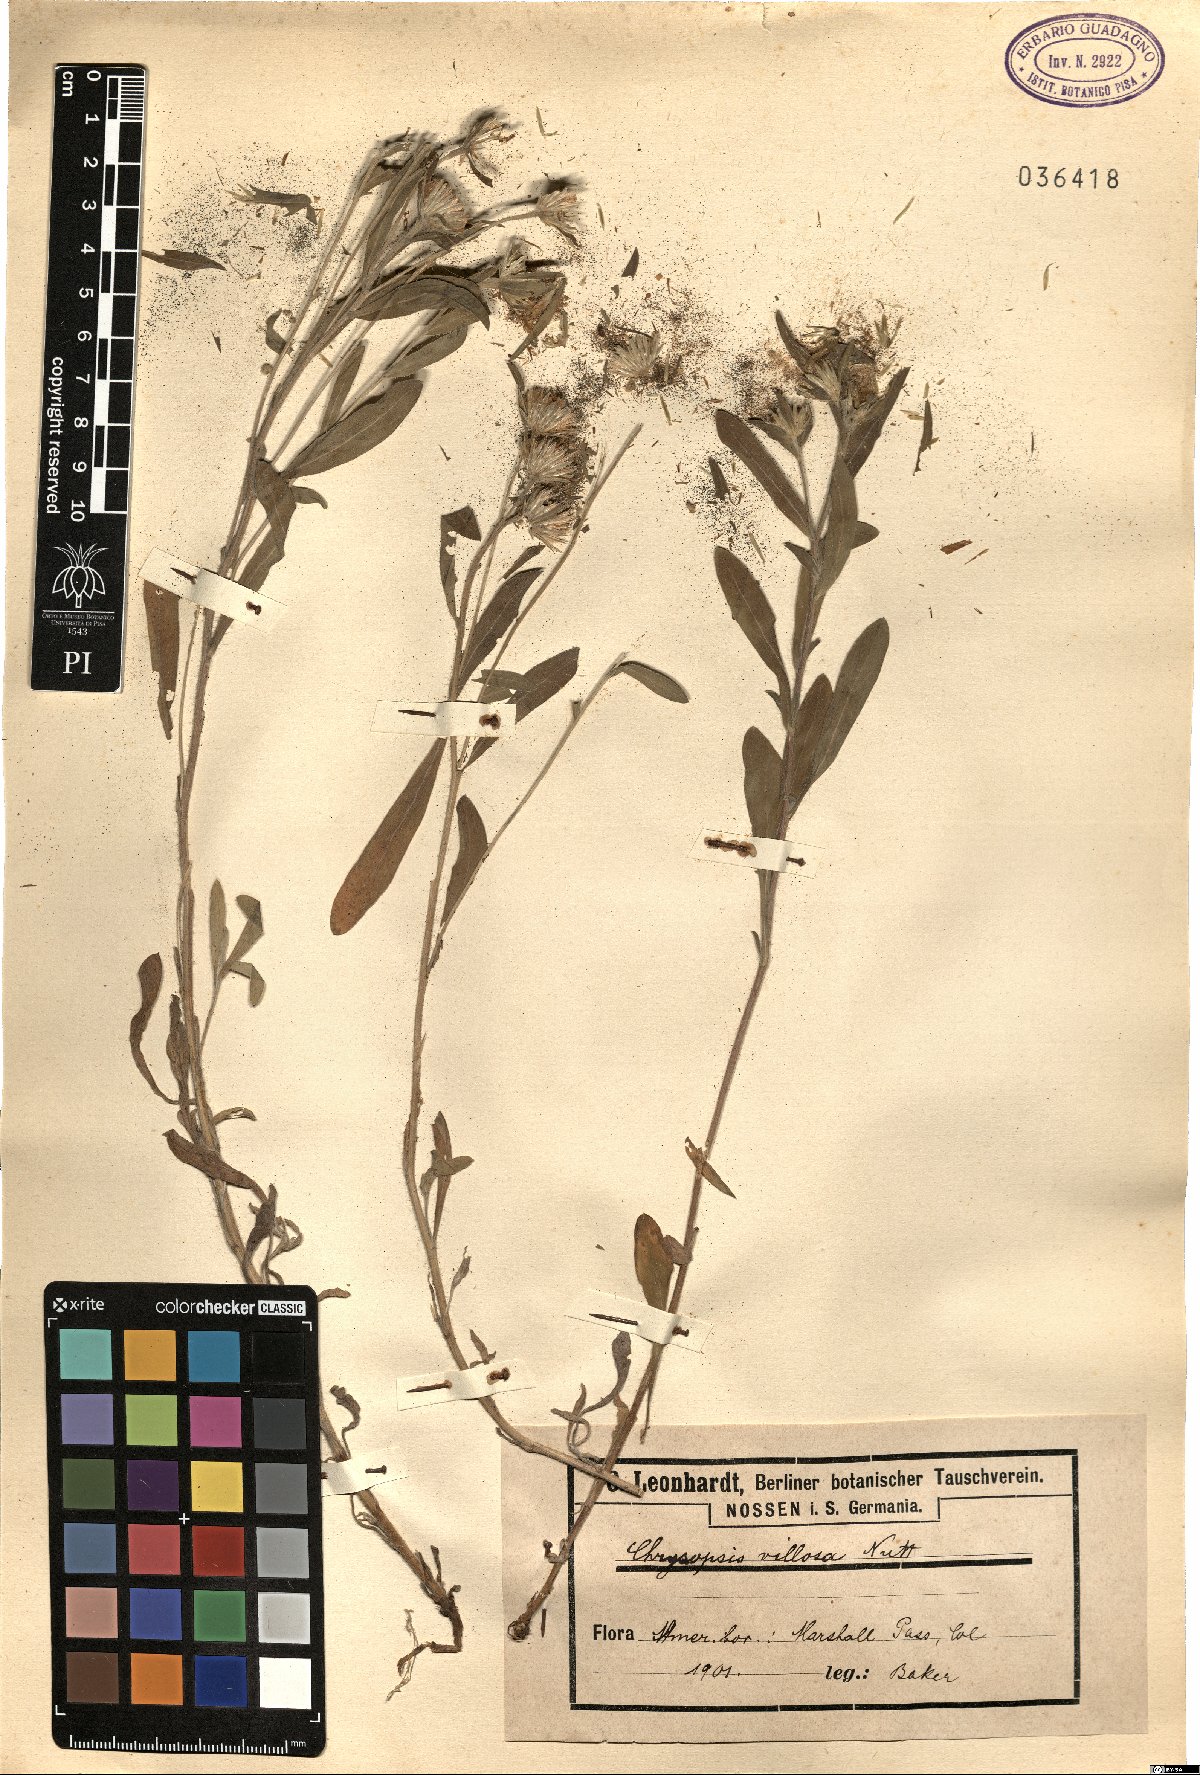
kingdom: Plantae
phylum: Tracheophyta
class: Magnoliopsida
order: Asterales
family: Asteraceae
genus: Heterotheca
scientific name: Heterotheca villosa
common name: Hairy false goldenaster
